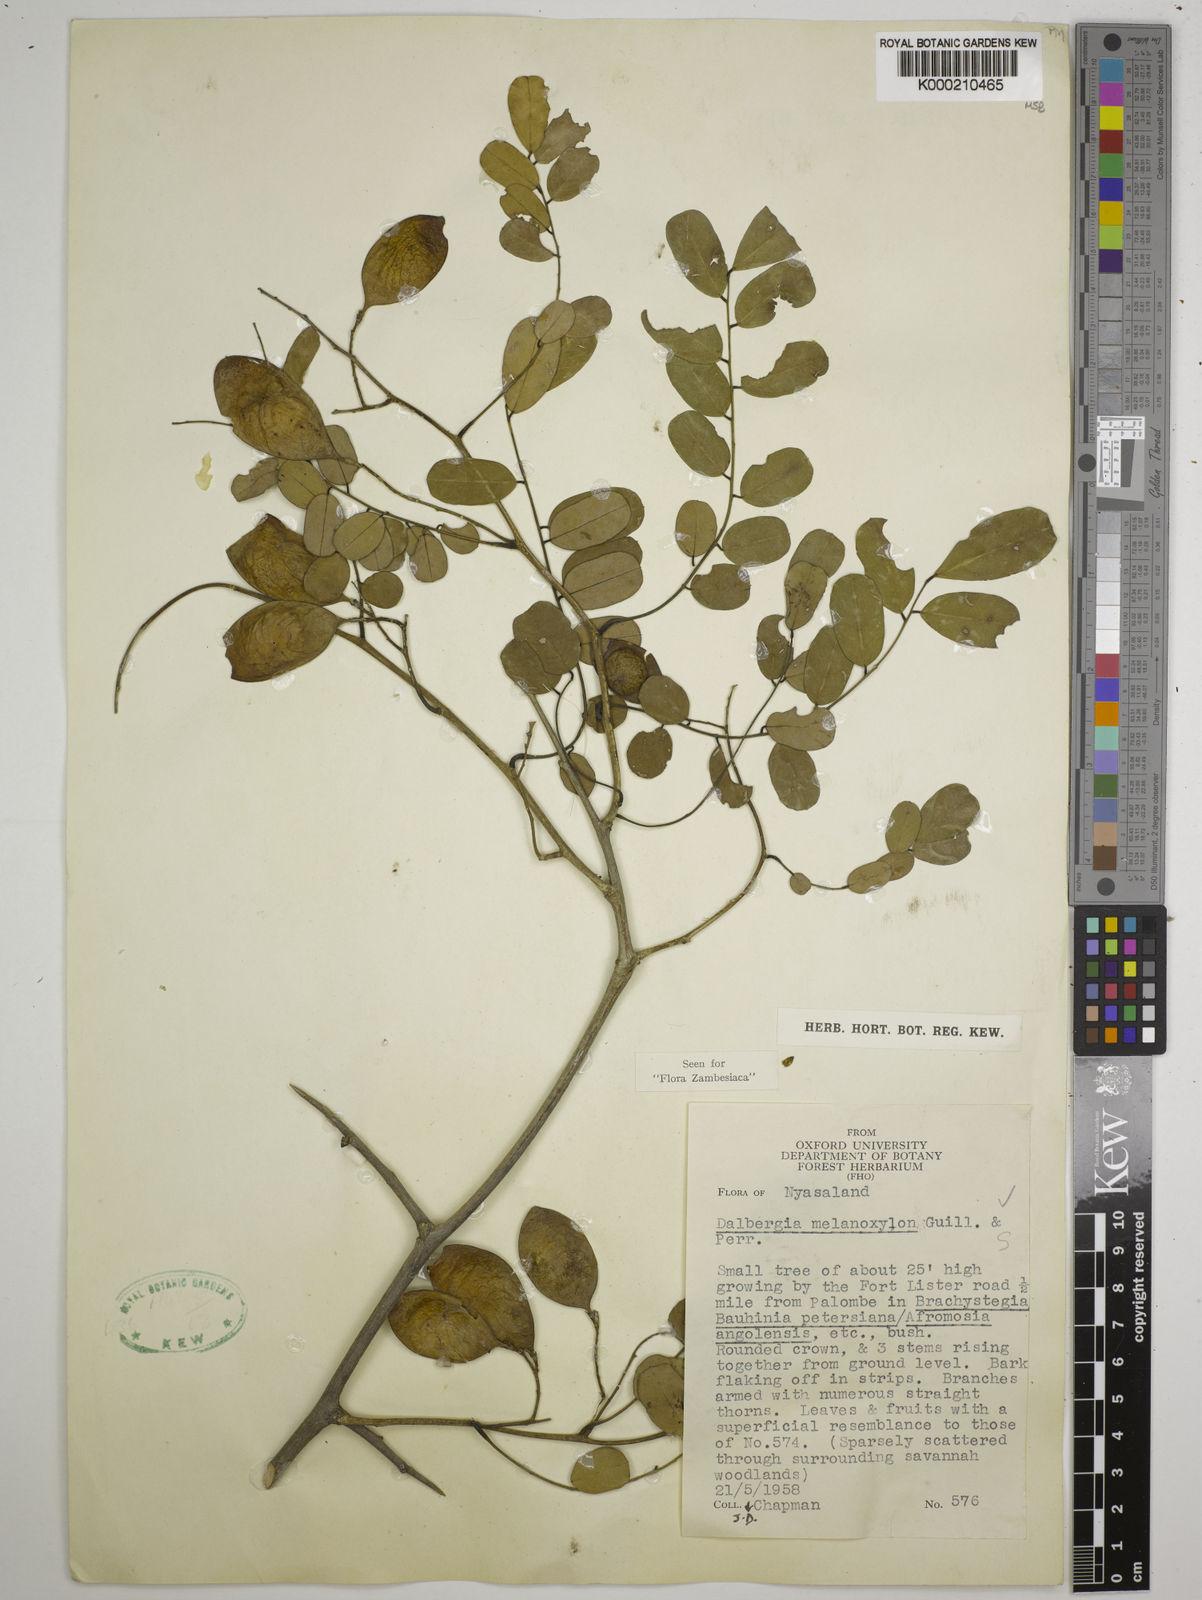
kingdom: Plantae
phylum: Tracheophyta
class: Magnoliopsida
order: Fabales
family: Fabaceae
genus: Dalbergia
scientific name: Dalbergia melanoxylon
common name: African blackwood
